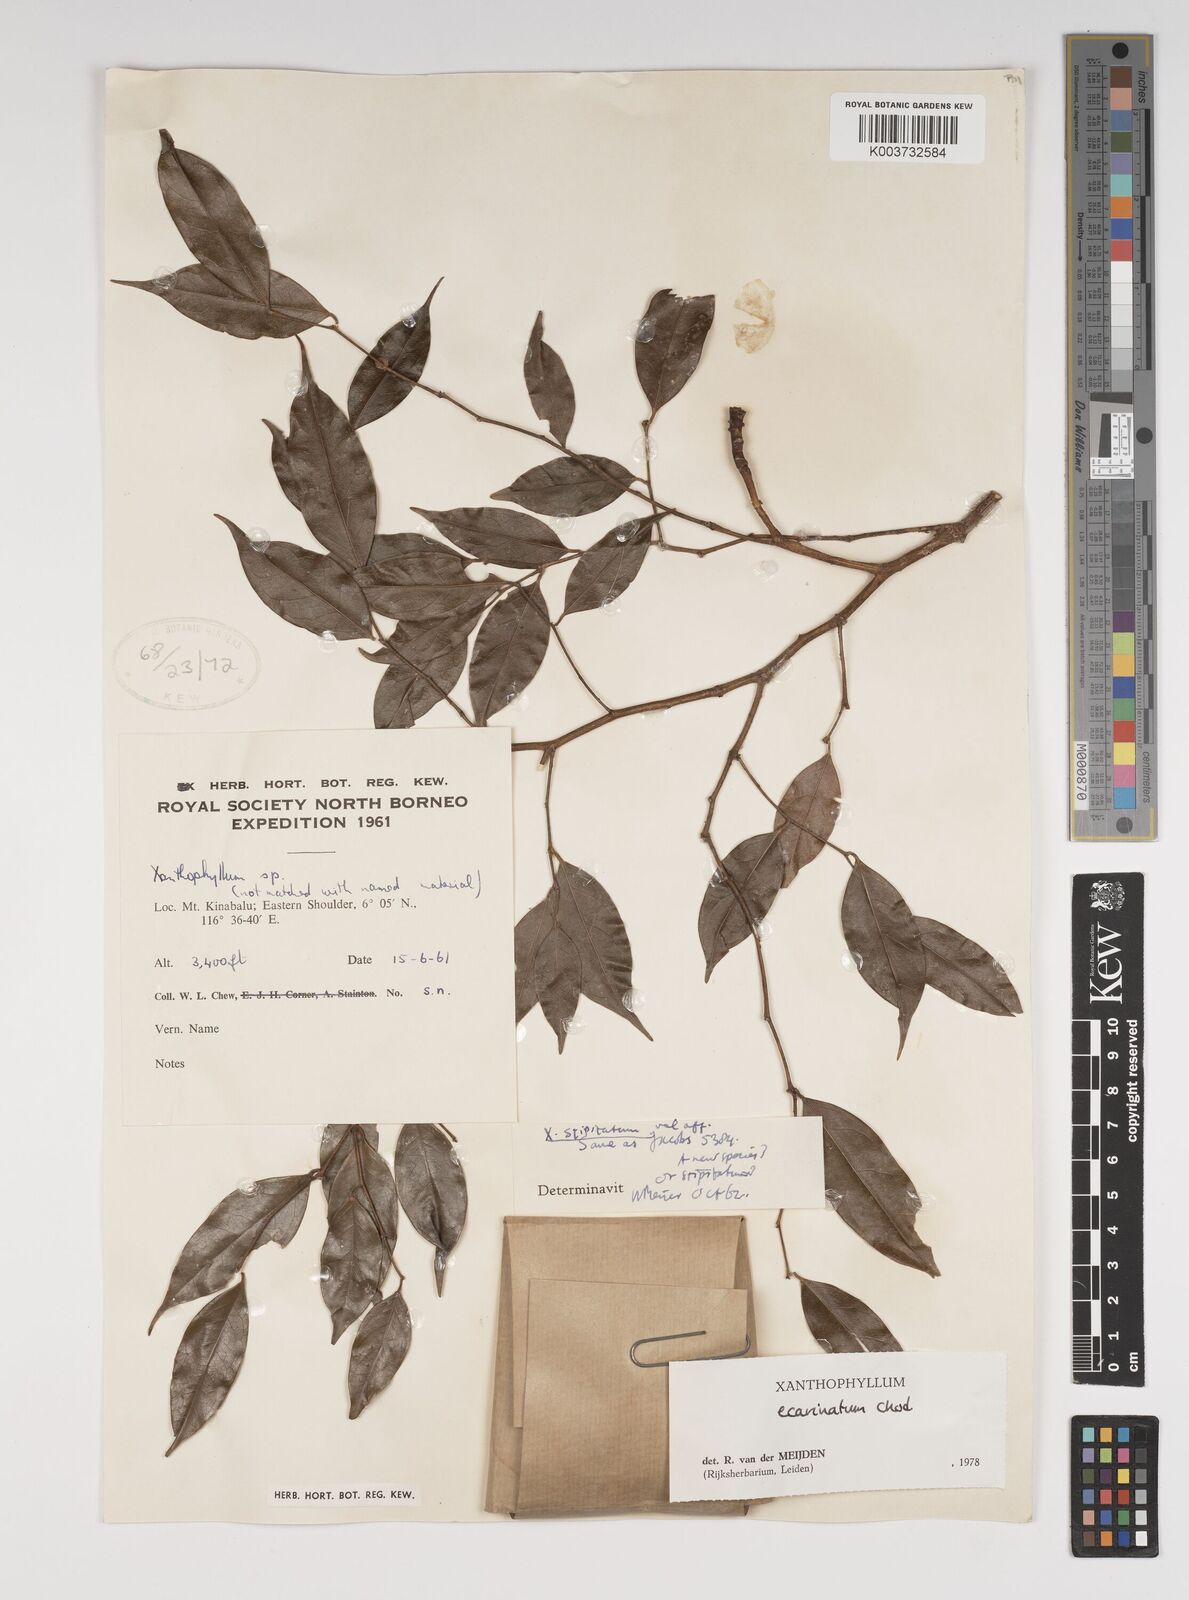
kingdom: Plantae
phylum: Tracheophyta
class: Magnoliopsida
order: Fabales
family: Polygalaceae
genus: Xanthophyllum
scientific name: Xanthophyllum ecarinatum
